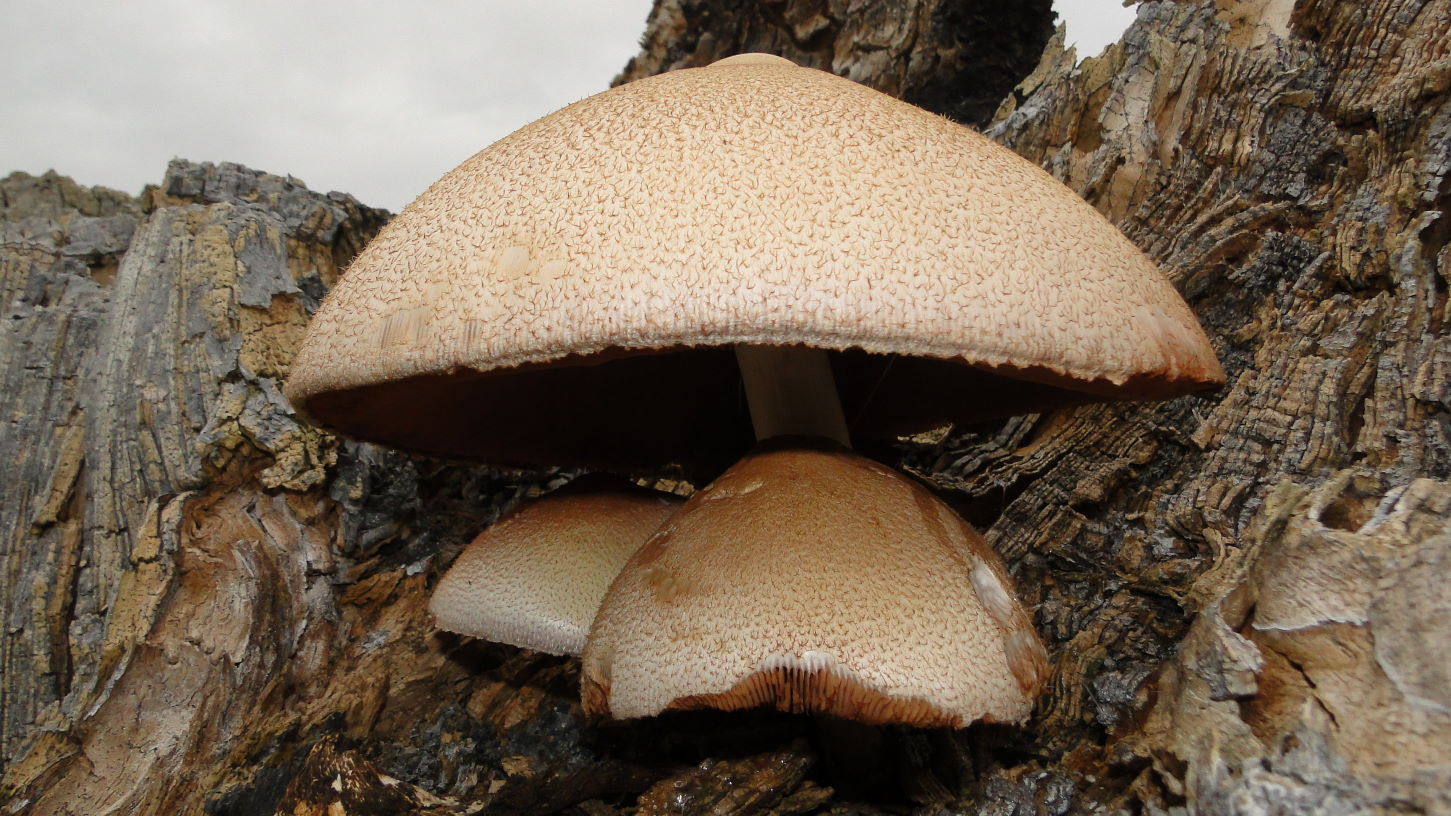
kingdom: Fungi
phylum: Basidiomycota
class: Agaricomycetes
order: Agaricales
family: Pluteaceae
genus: Volvariella
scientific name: Volvariella bombycina
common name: silkehåret posesvamp
